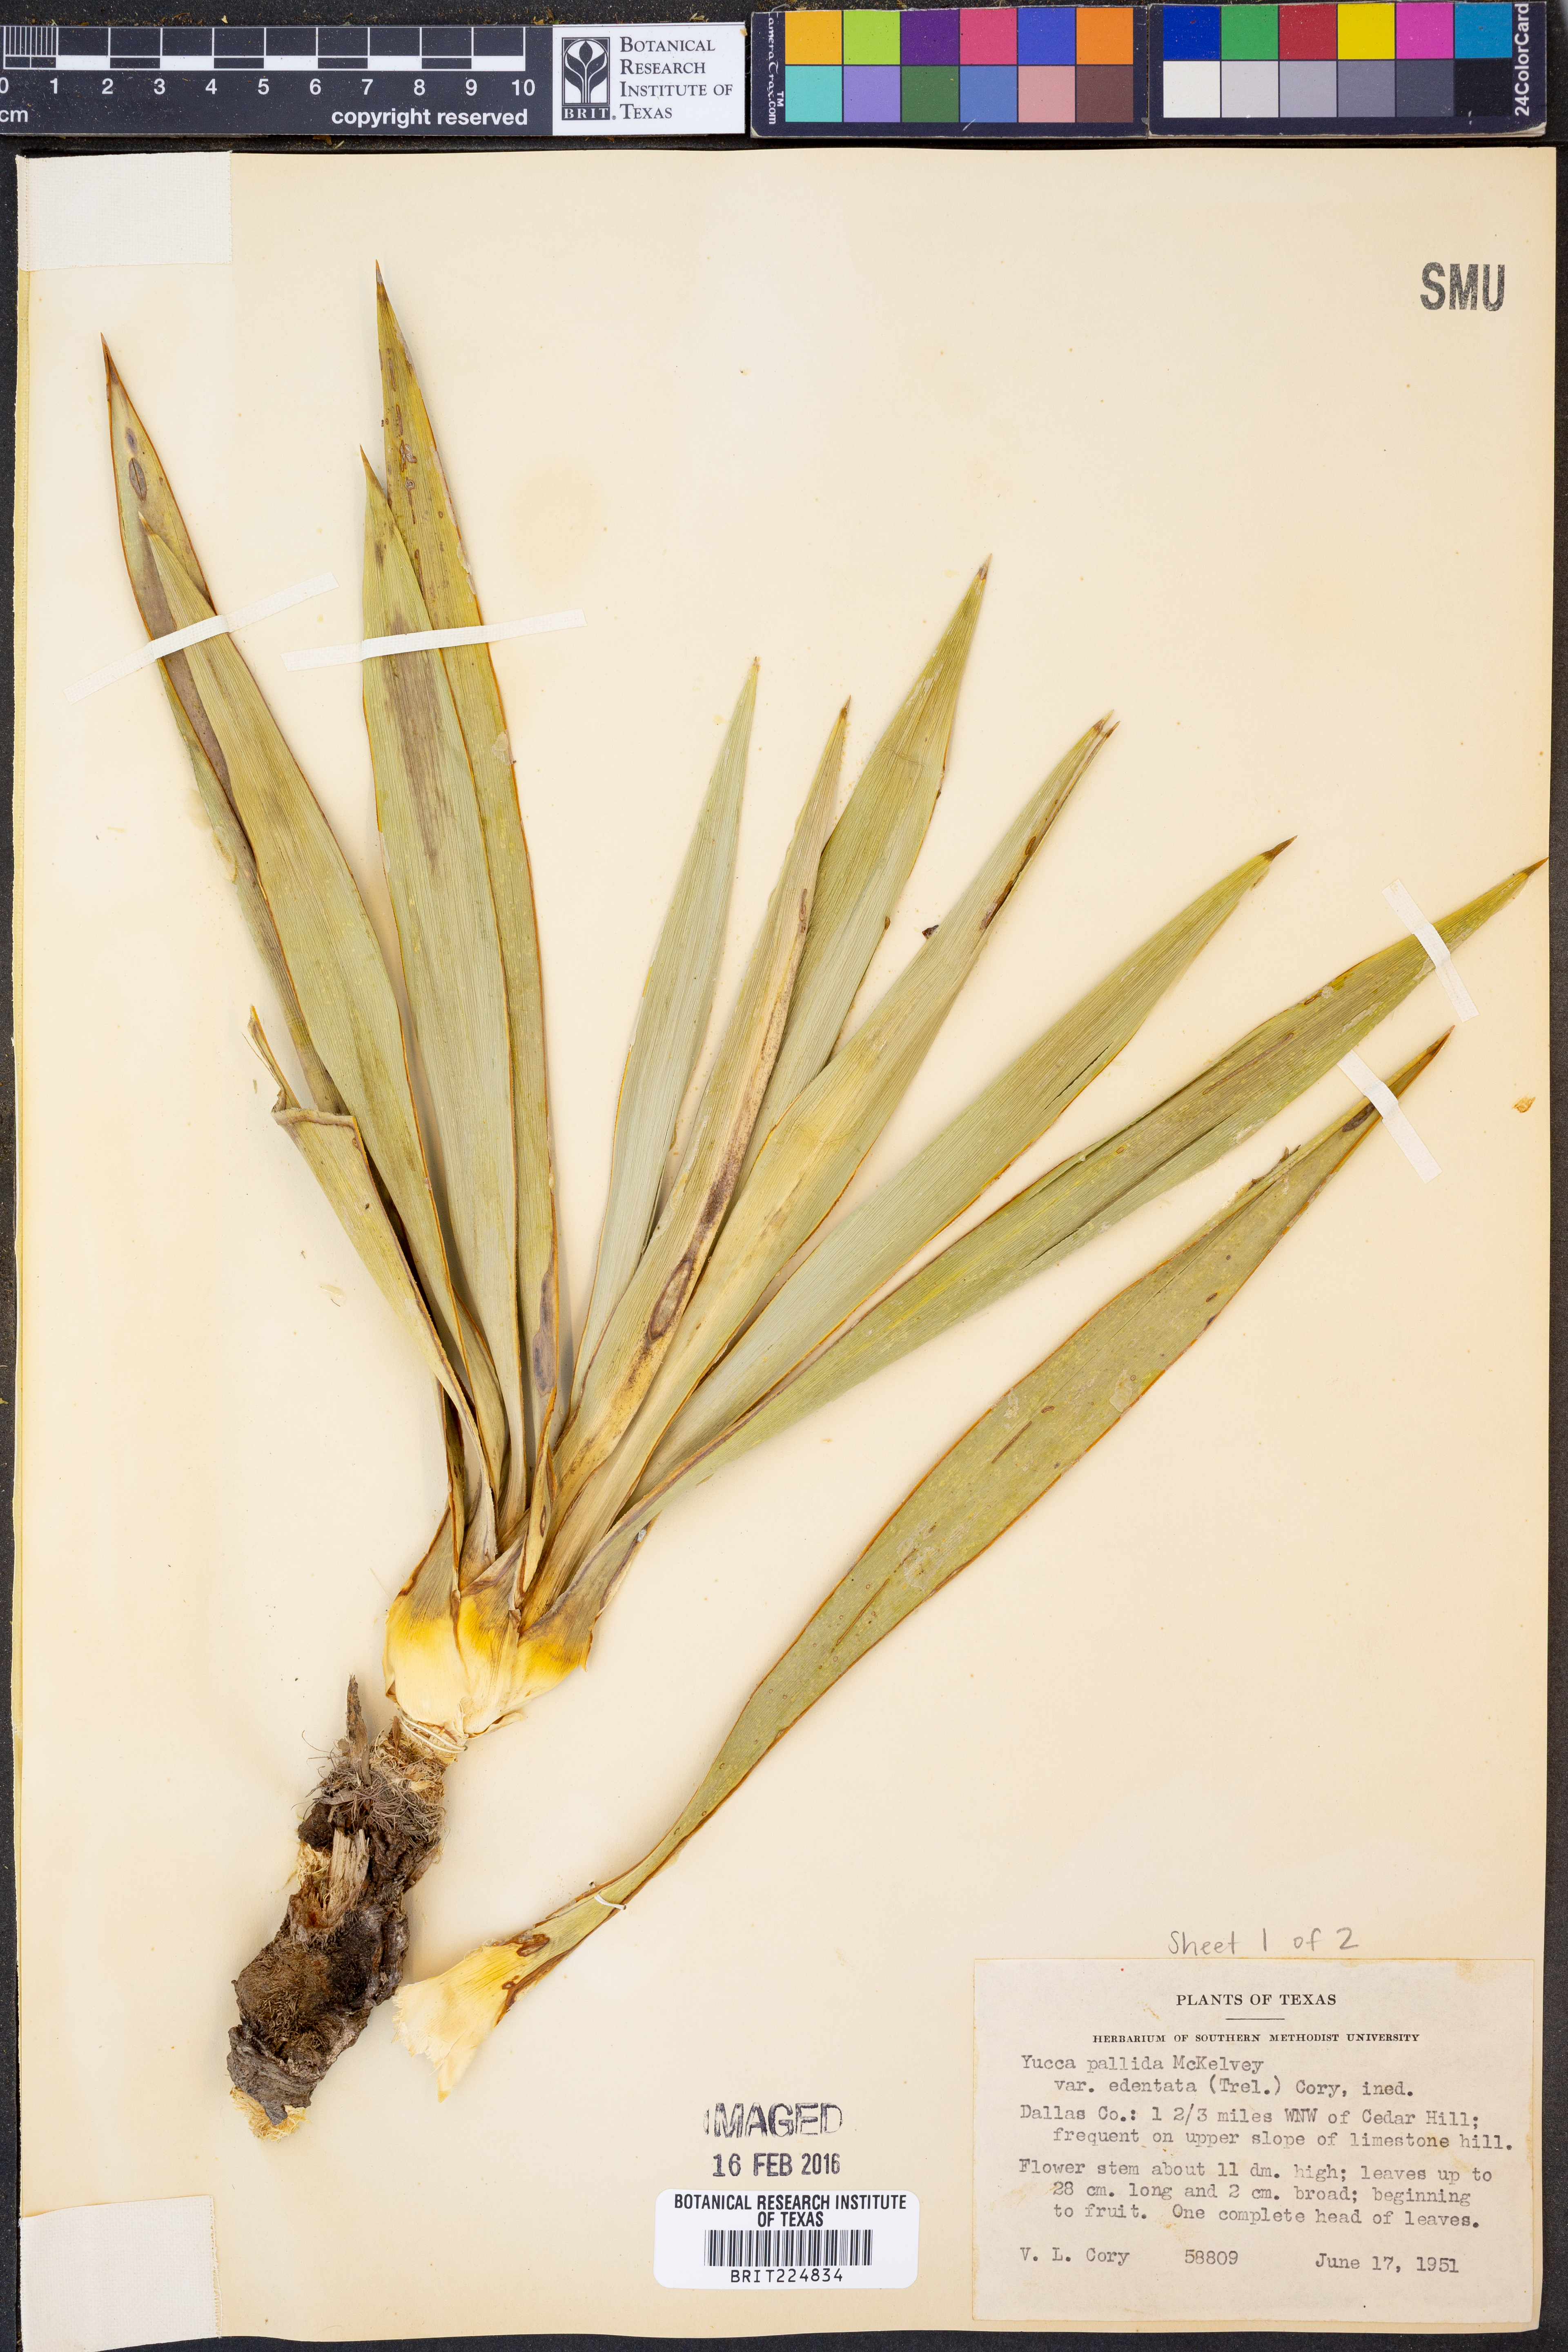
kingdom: Plantae
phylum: Tracheophyta
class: Liliopsida
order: Asparagales
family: Asparagaceae
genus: Yucca
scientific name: Yucca pallida
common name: Pale leaf yucca
